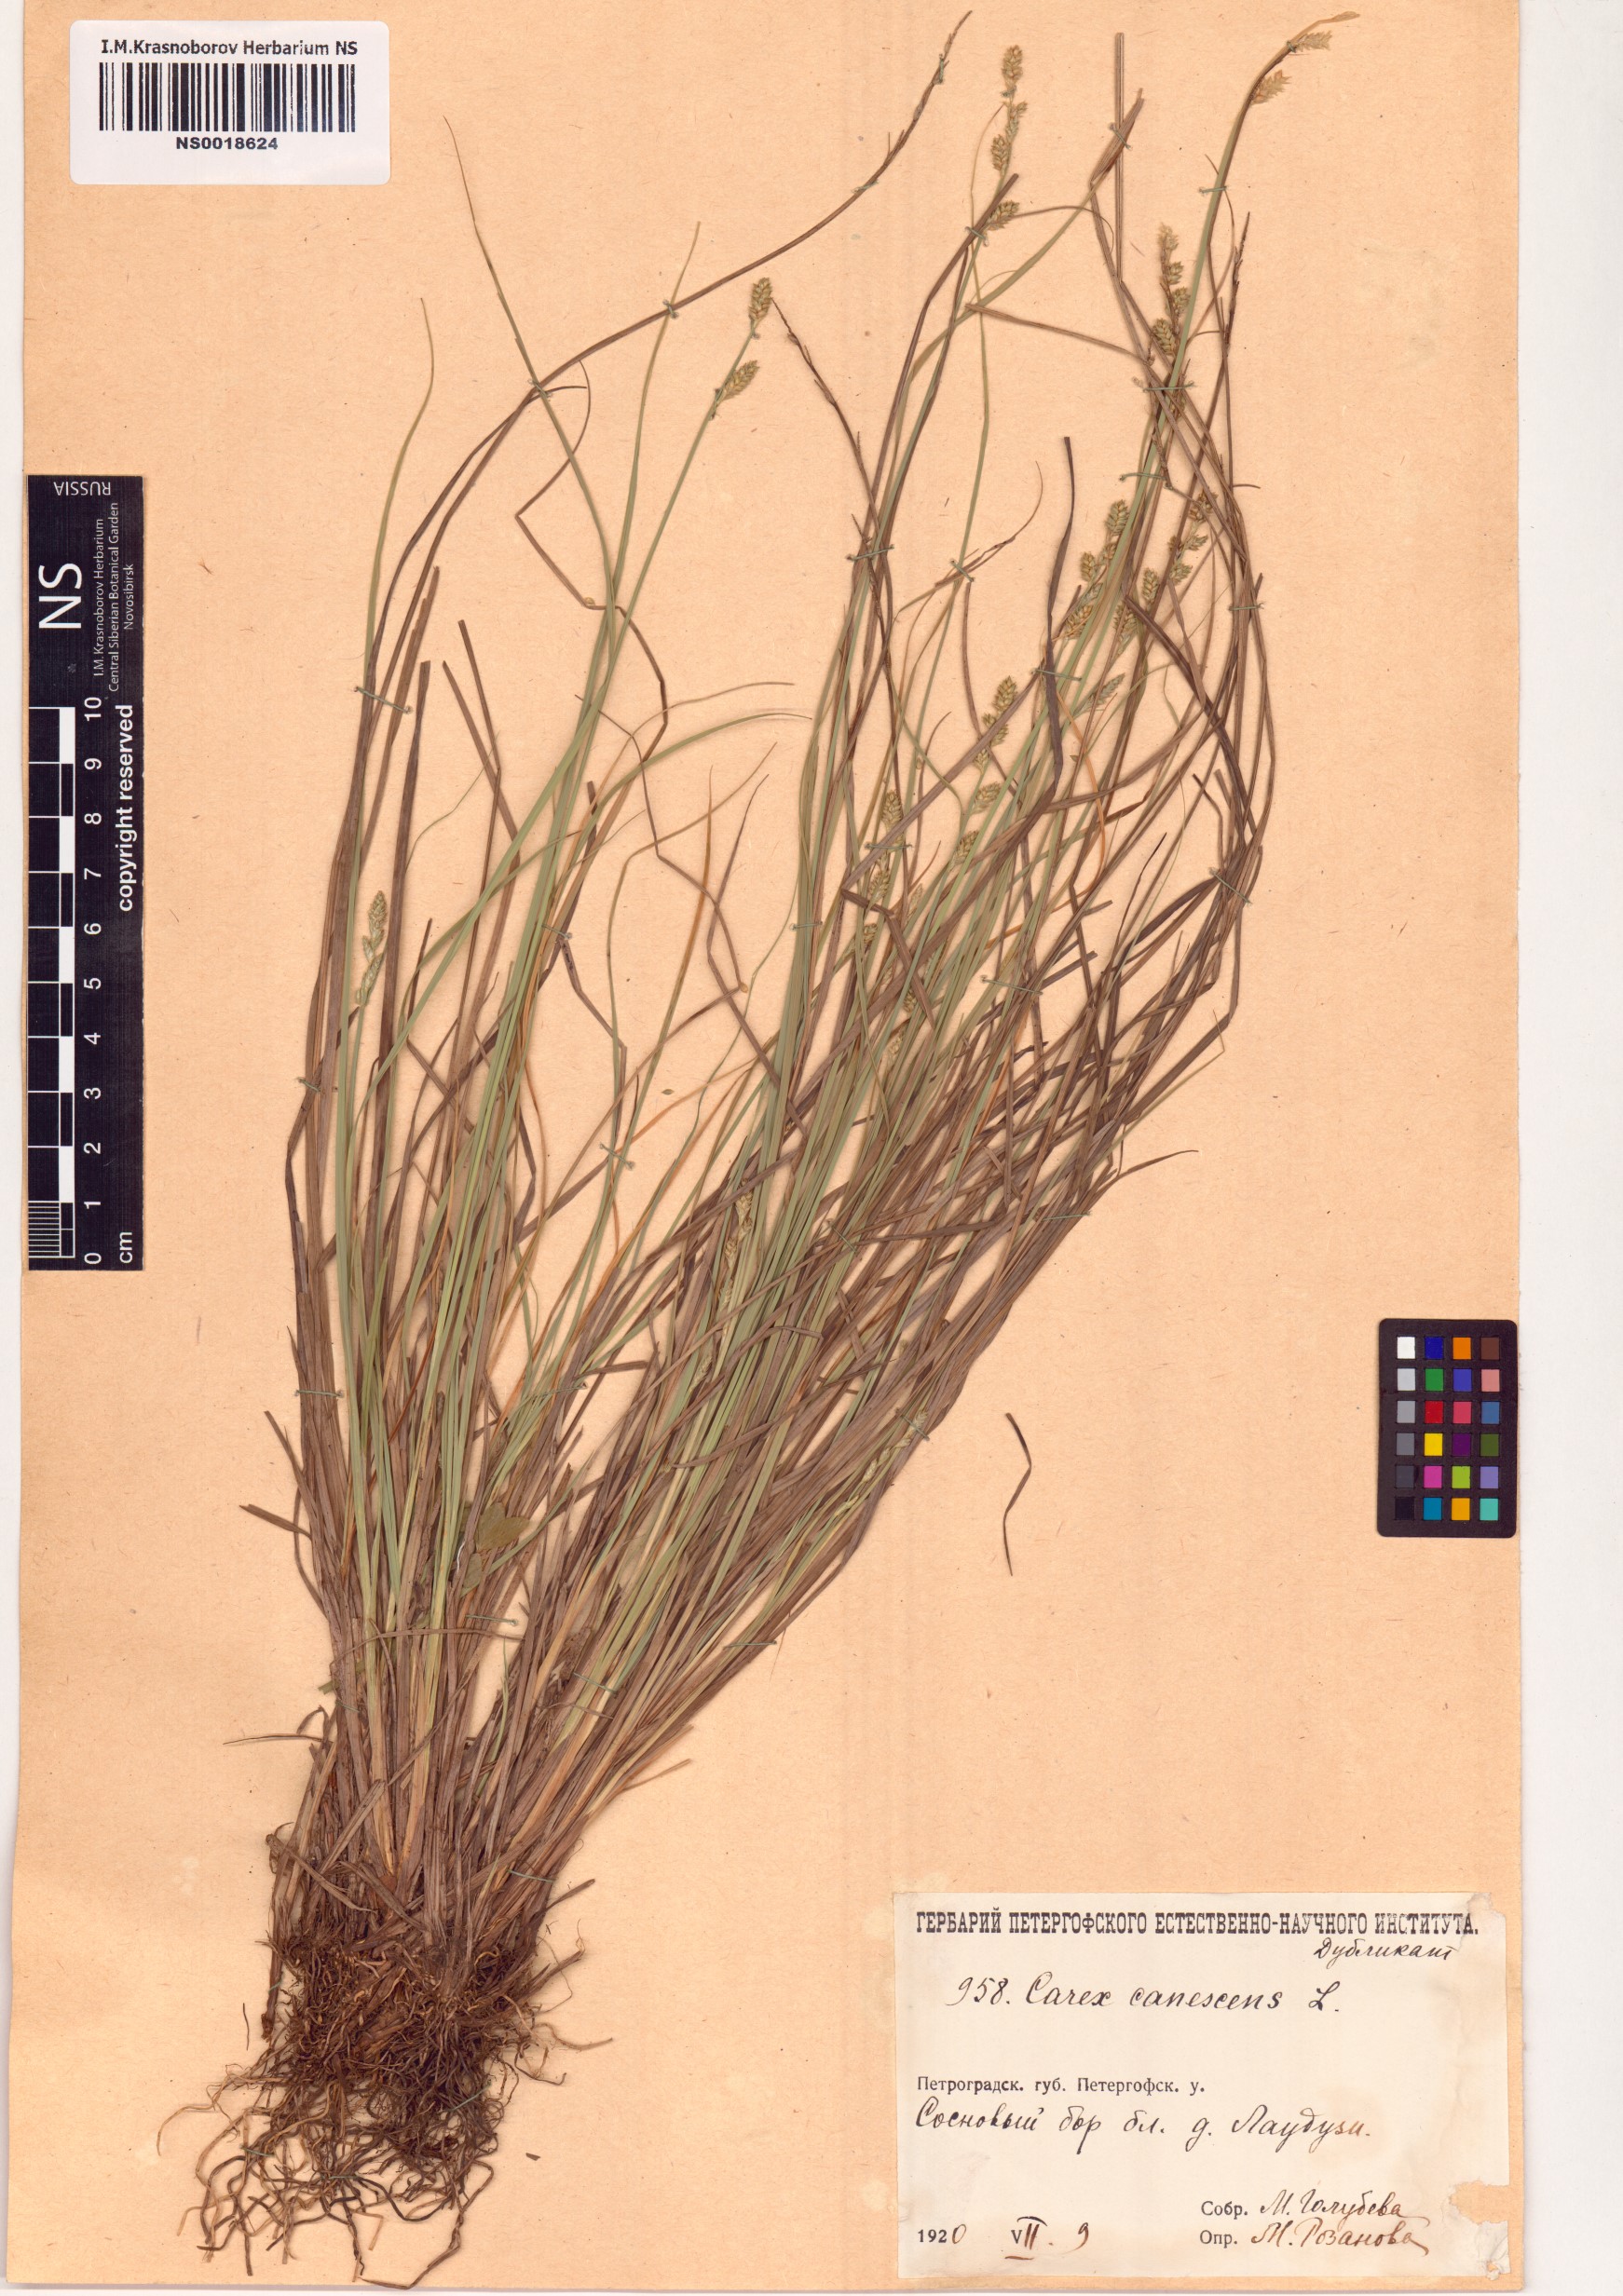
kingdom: Plantae
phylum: Tracheophyta
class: Liliopsida
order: Poales
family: Cyperaceae
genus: Carex
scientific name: Carex canescens
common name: White sedge
